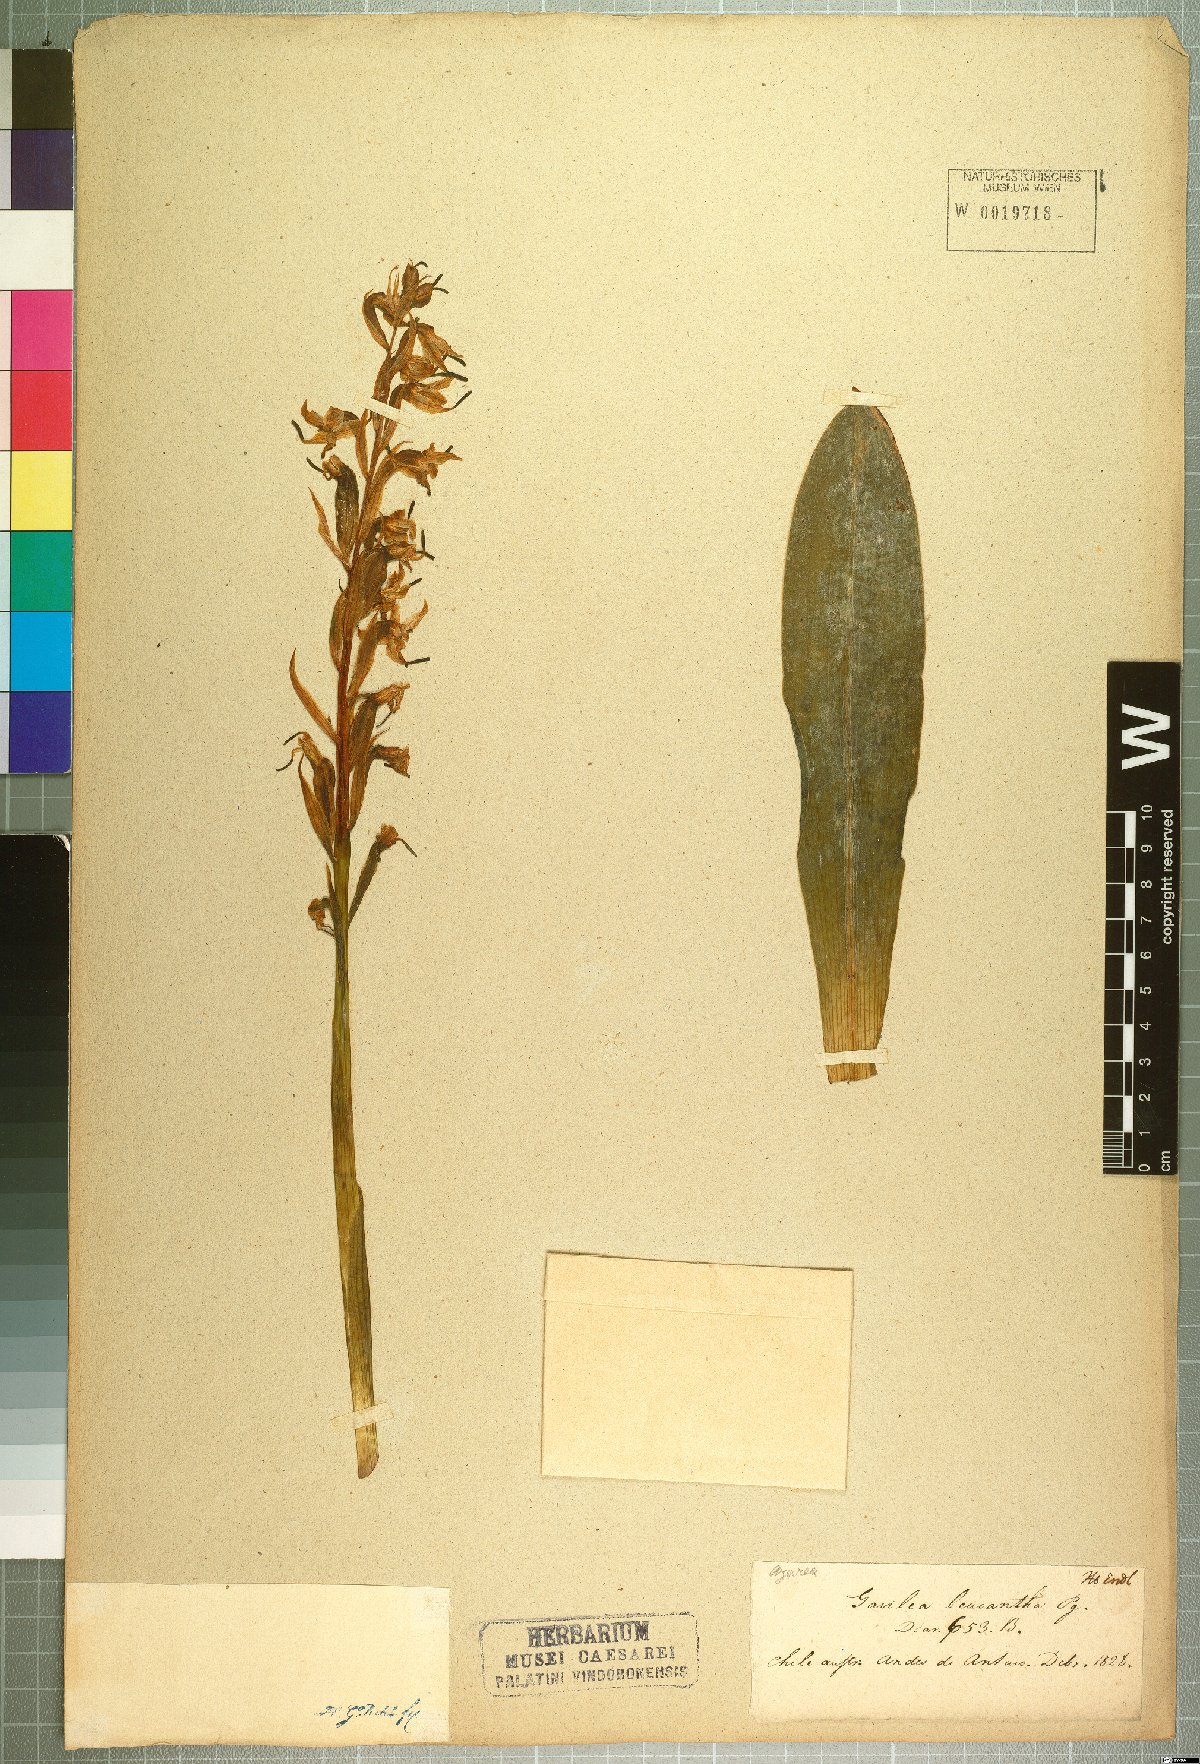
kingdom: Plantae
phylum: Tracheophyta
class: Liliopsida
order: Asparagales
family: Orchidaceae
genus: Gavilea
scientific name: Gavilea venosa
